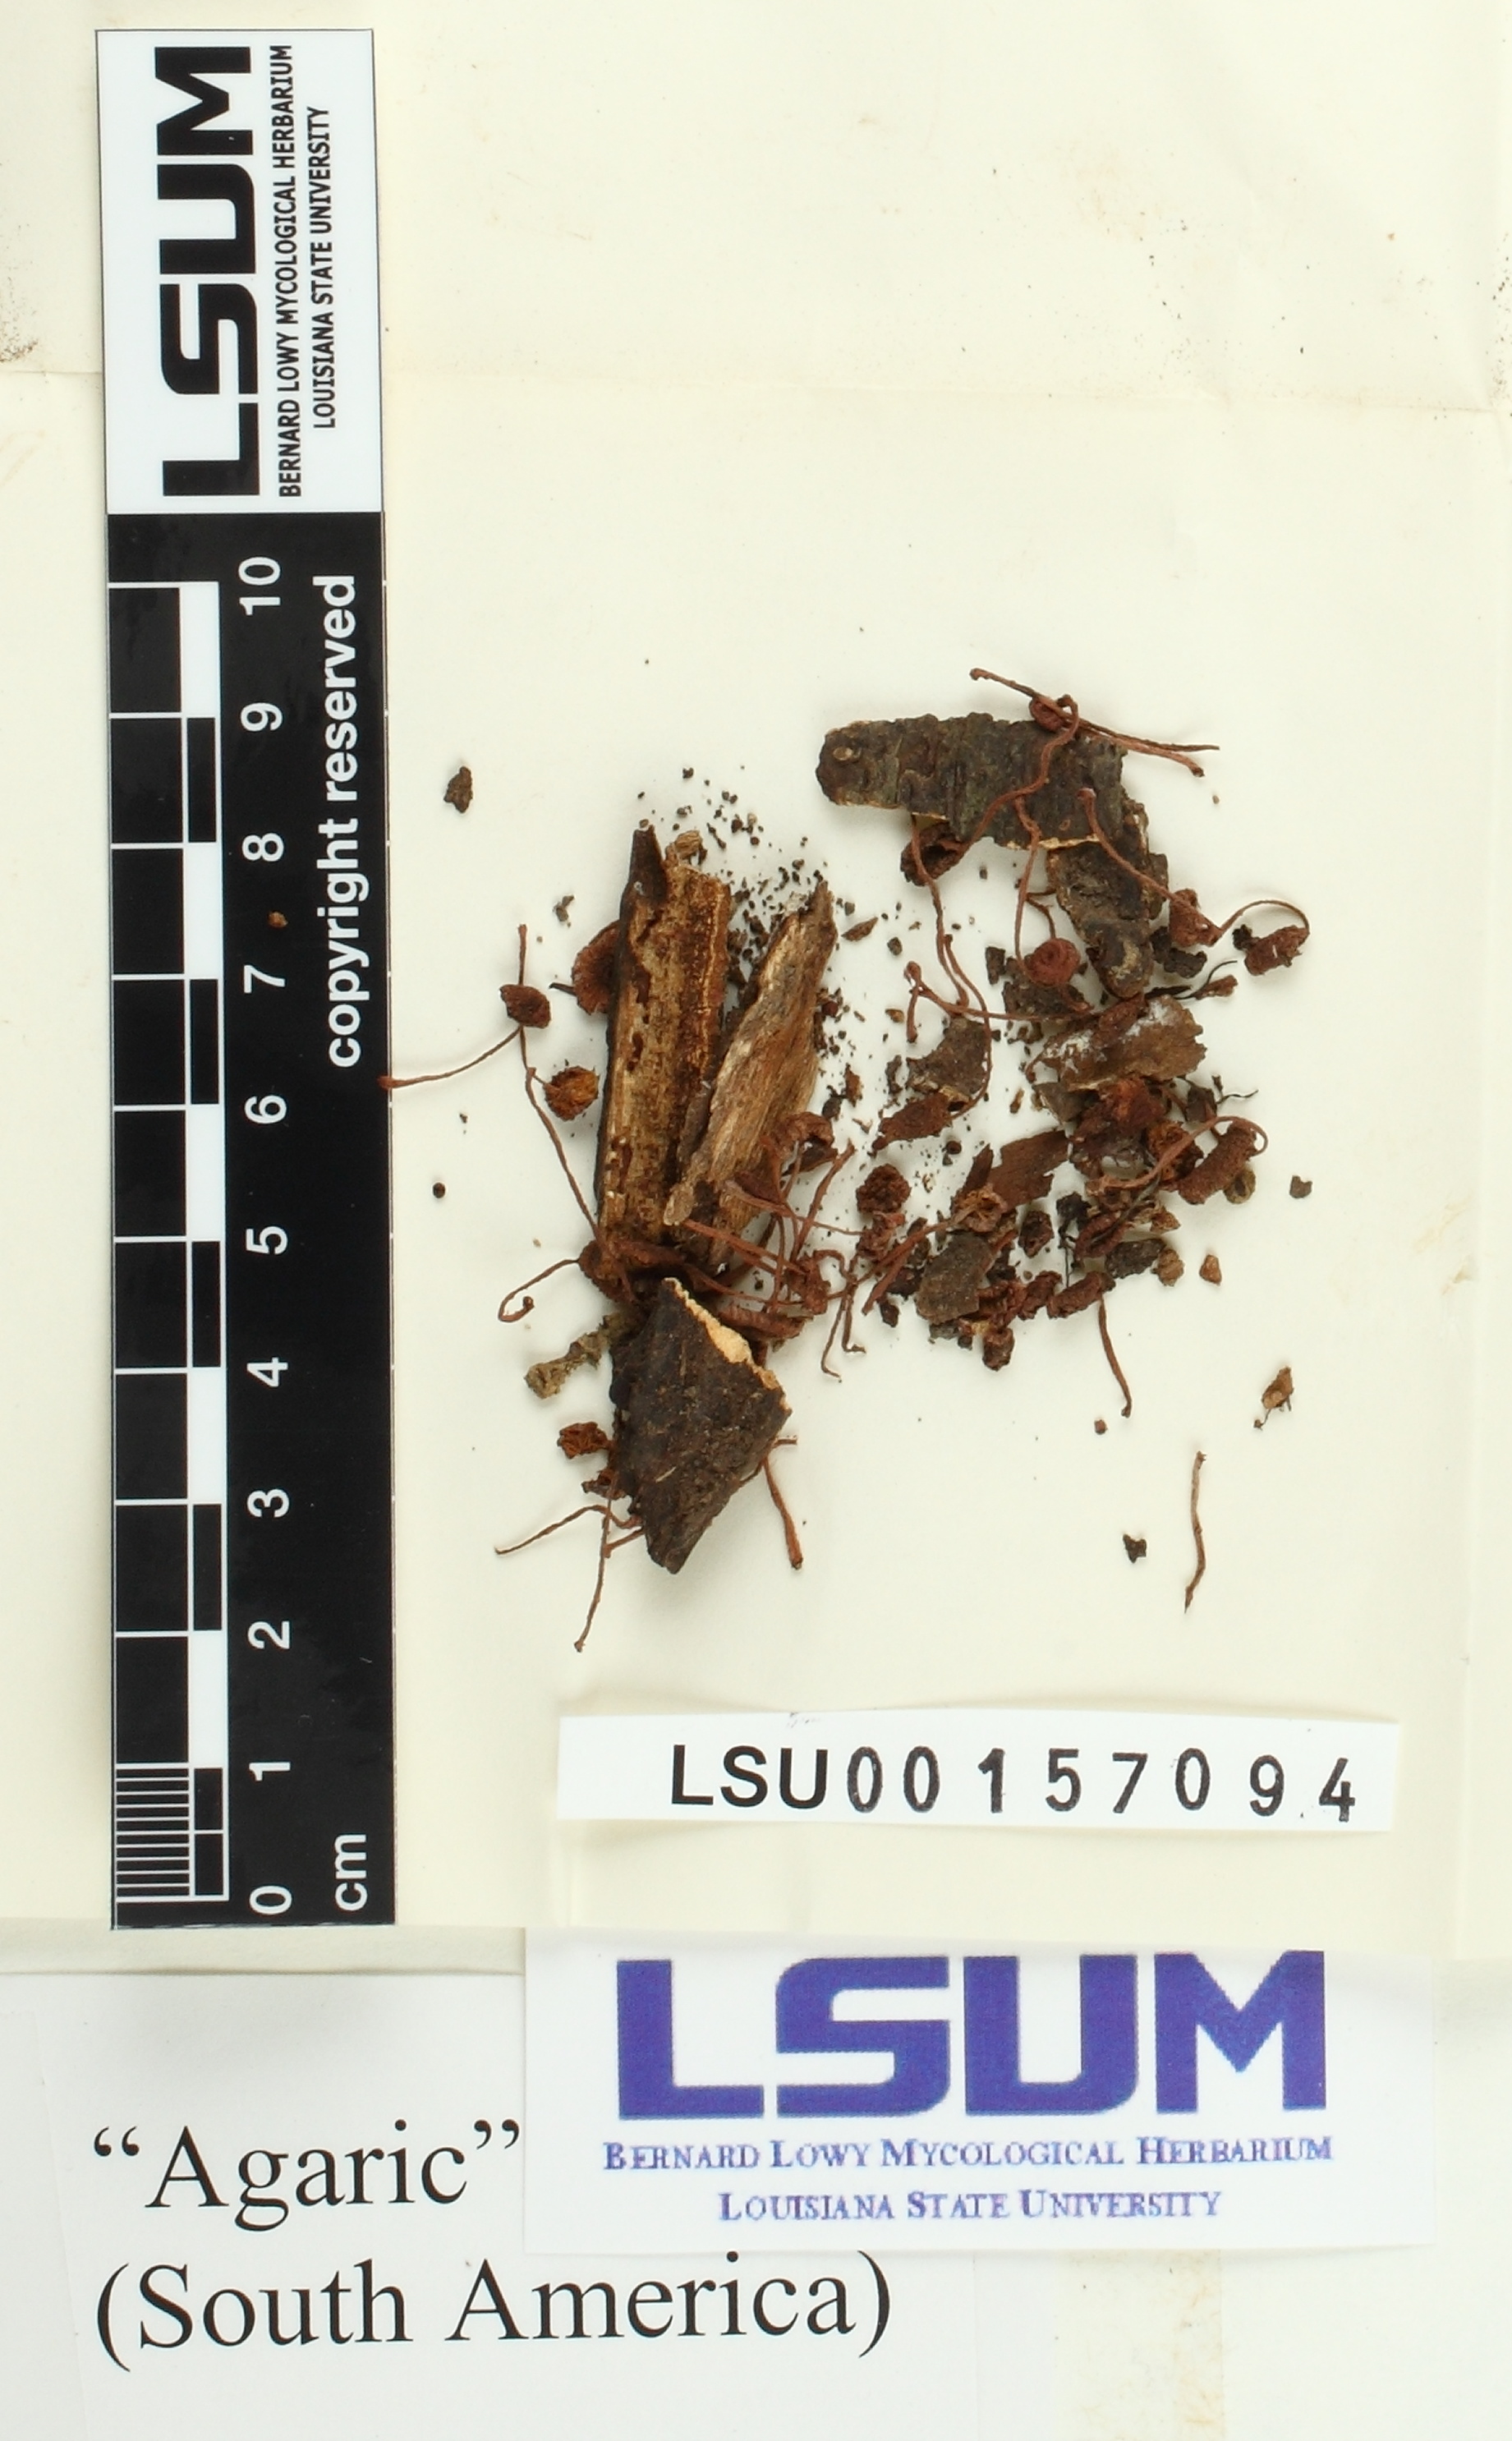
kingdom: Fungi
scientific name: Fungi
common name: Fungi
